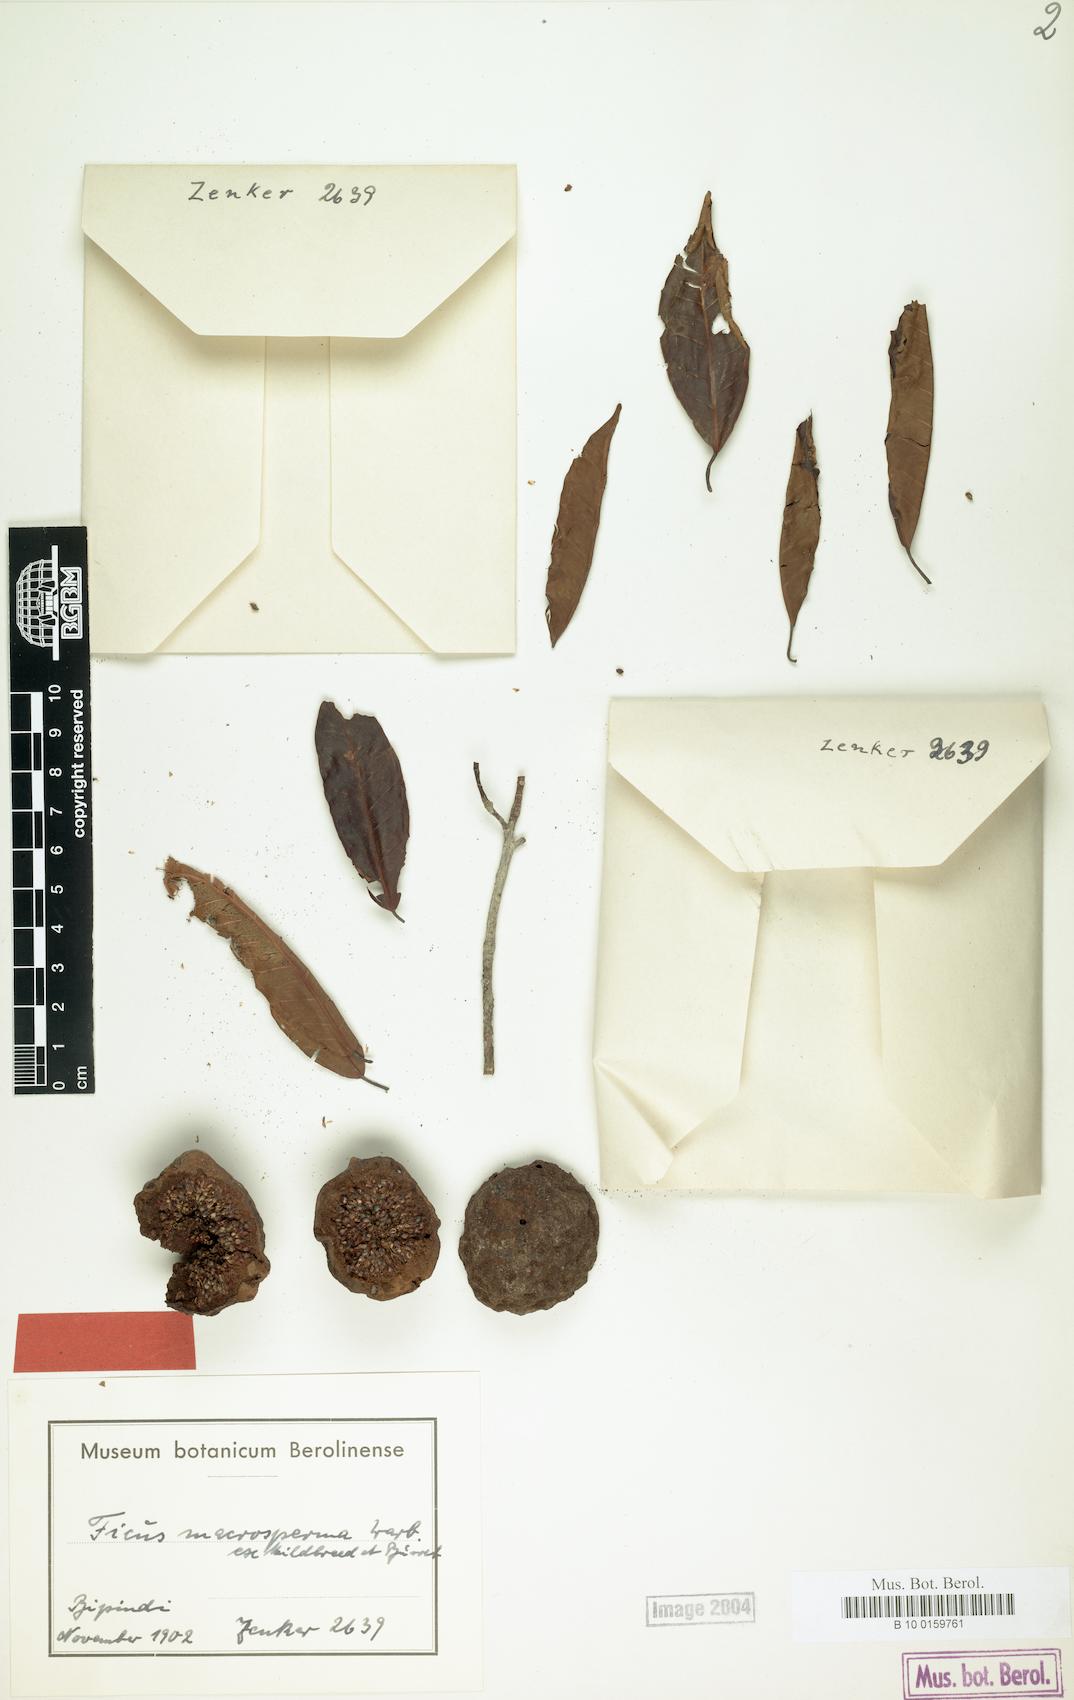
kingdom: Plantae
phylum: Tracheophyta
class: Magnoliopsida
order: Rosales
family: Moraceae
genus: Ficus
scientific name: Ficus sansibarica
